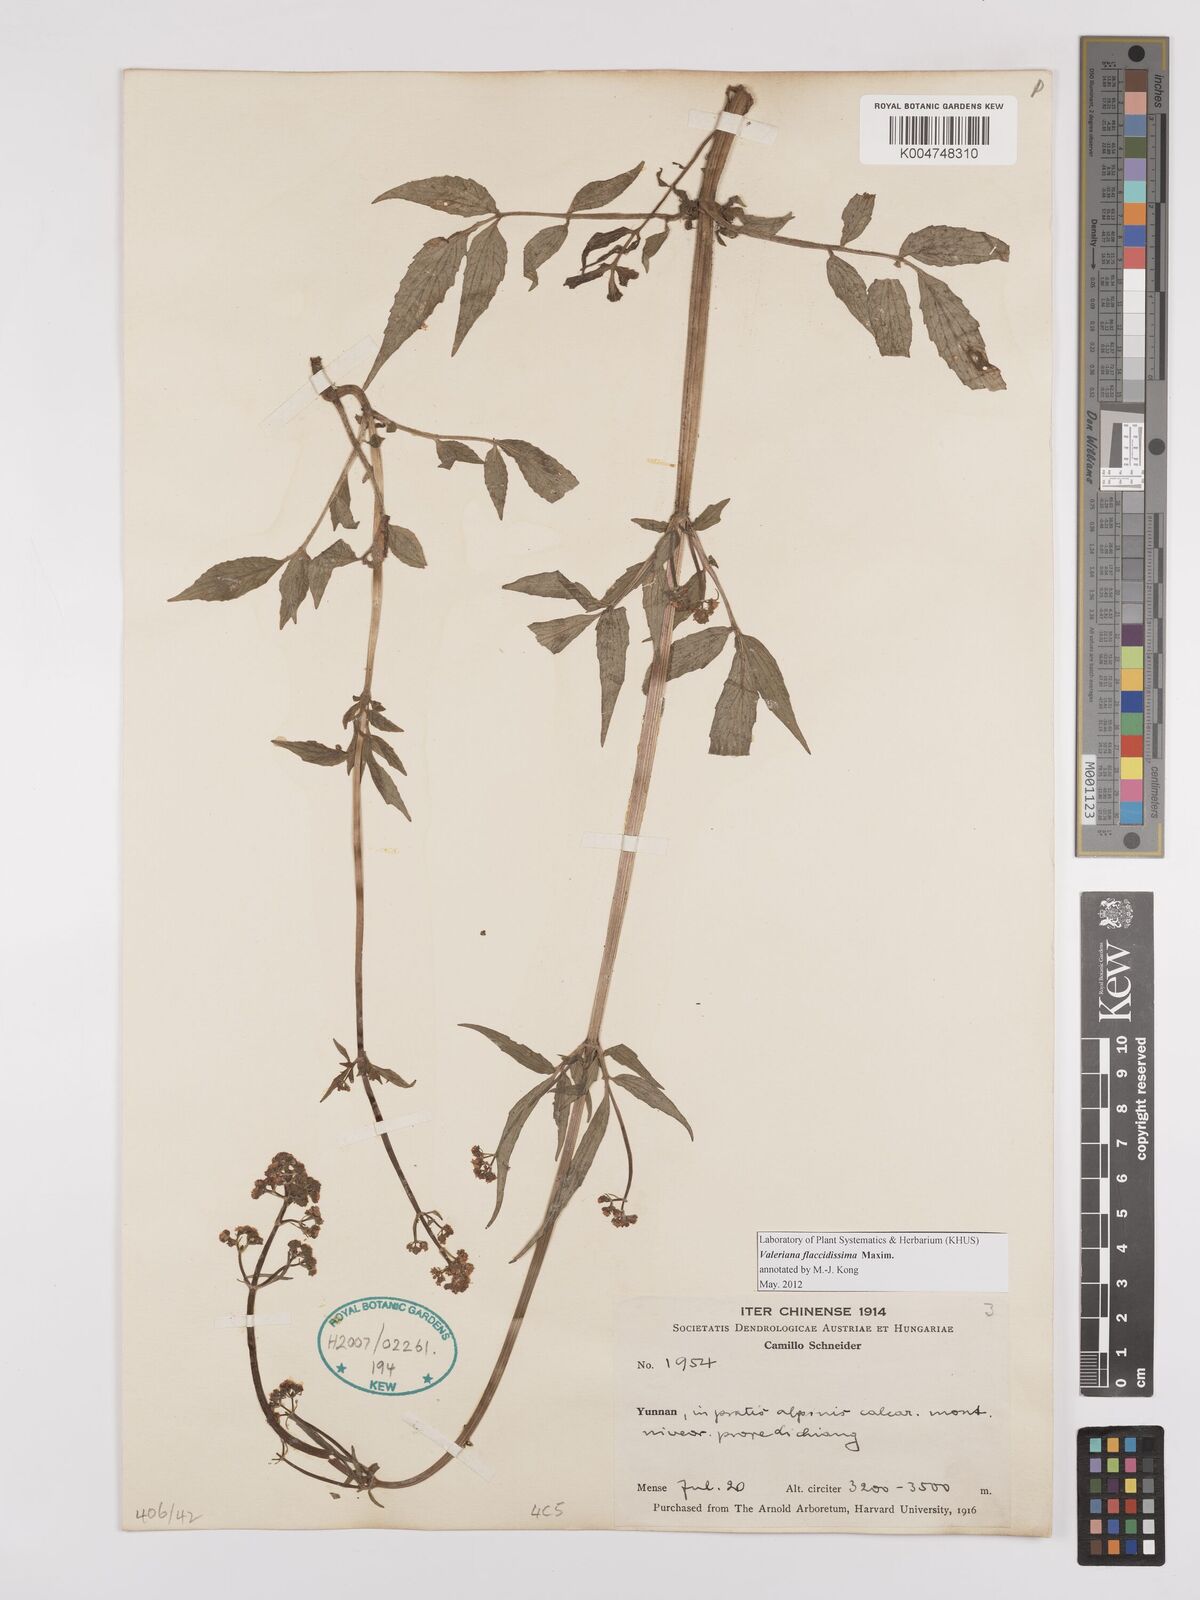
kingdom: Plantae
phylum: Tracheophyta
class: Magnoliopsida
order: Dipsacales
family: Caprifoliaceae
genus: Valeriana
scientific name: Valeriana flaccidissima
